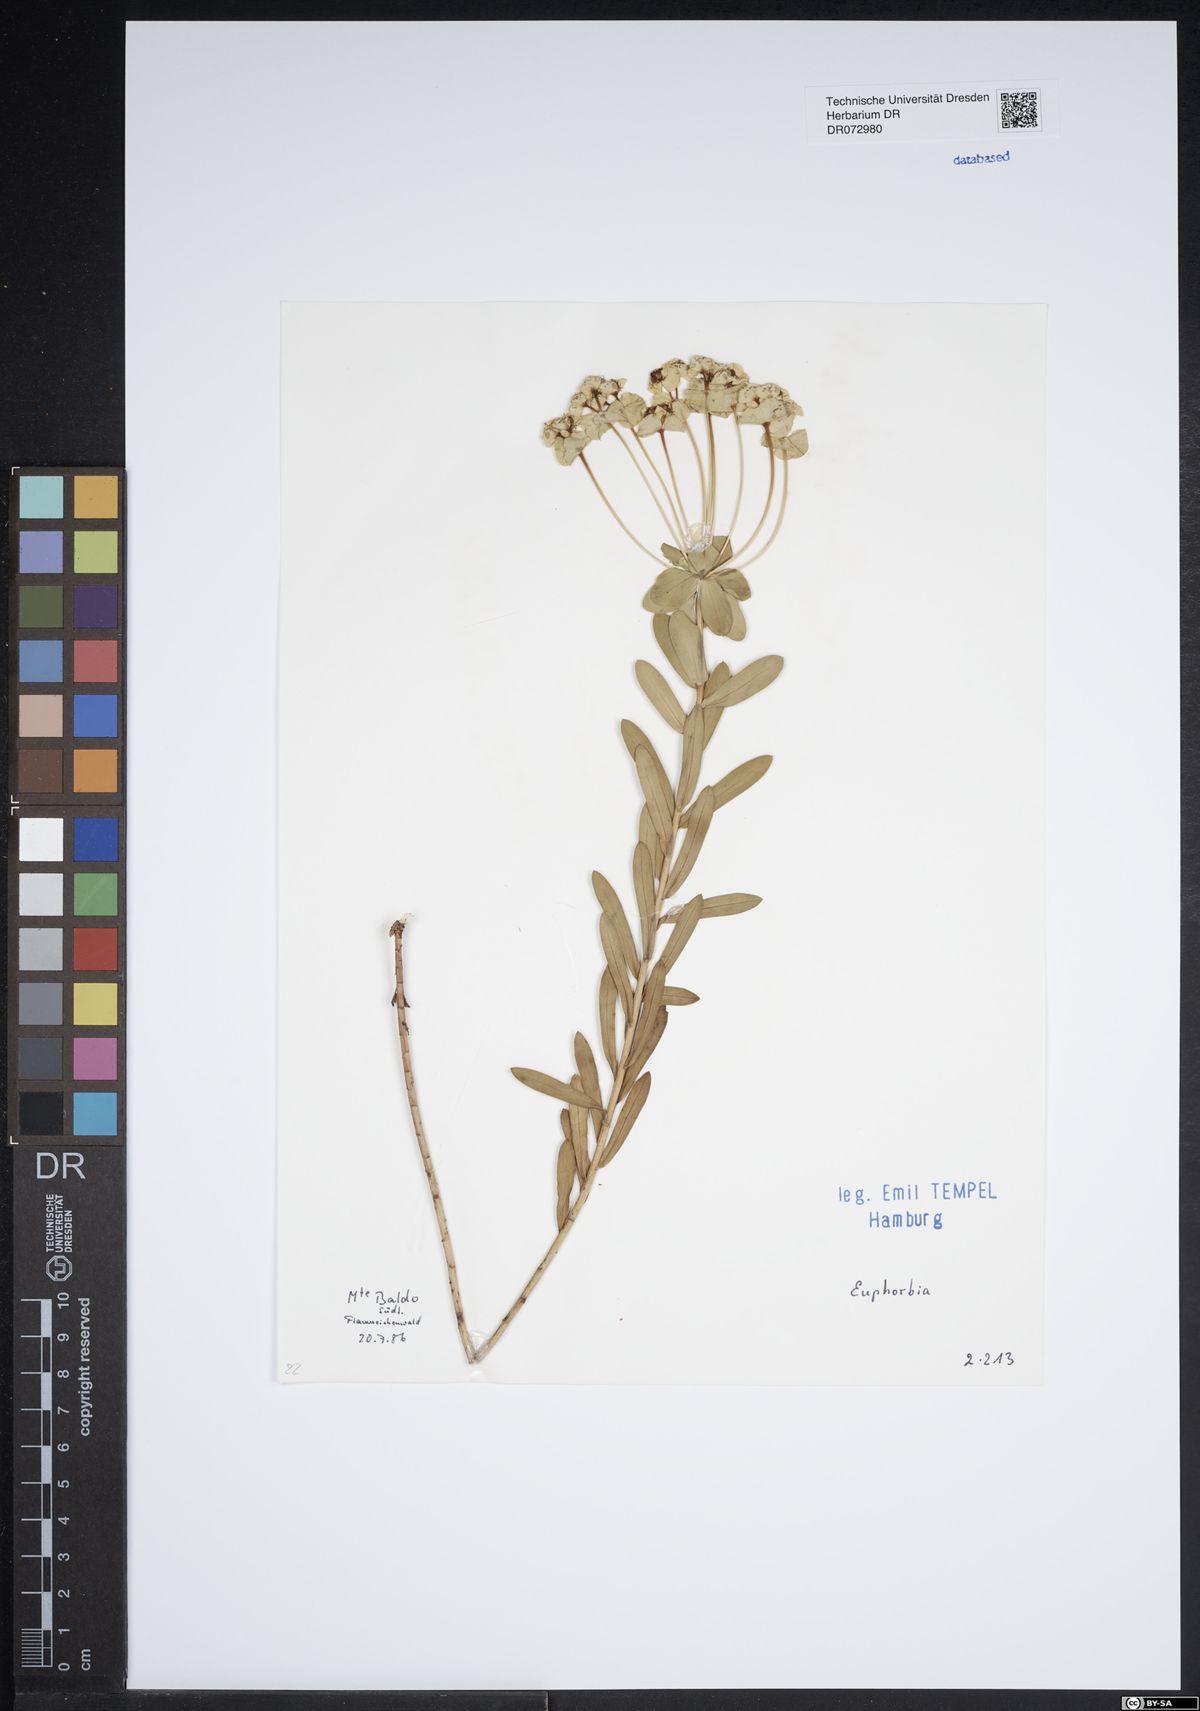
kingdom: Plantae
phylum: Tracheophyta
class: Magnoliopsida
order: Malpighiales
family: Euphorbiaceae
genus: Euphorbia
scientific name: Euphorbia
